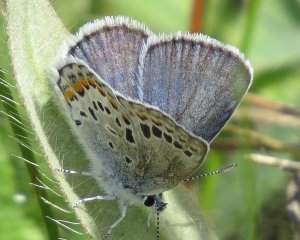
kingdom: Animalia
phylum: Arthropoda
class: Insecta
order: Lepidoptera
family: Lycaenidae
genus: Plebejus
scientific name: Plebejus samuelis
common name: Karner Blue
